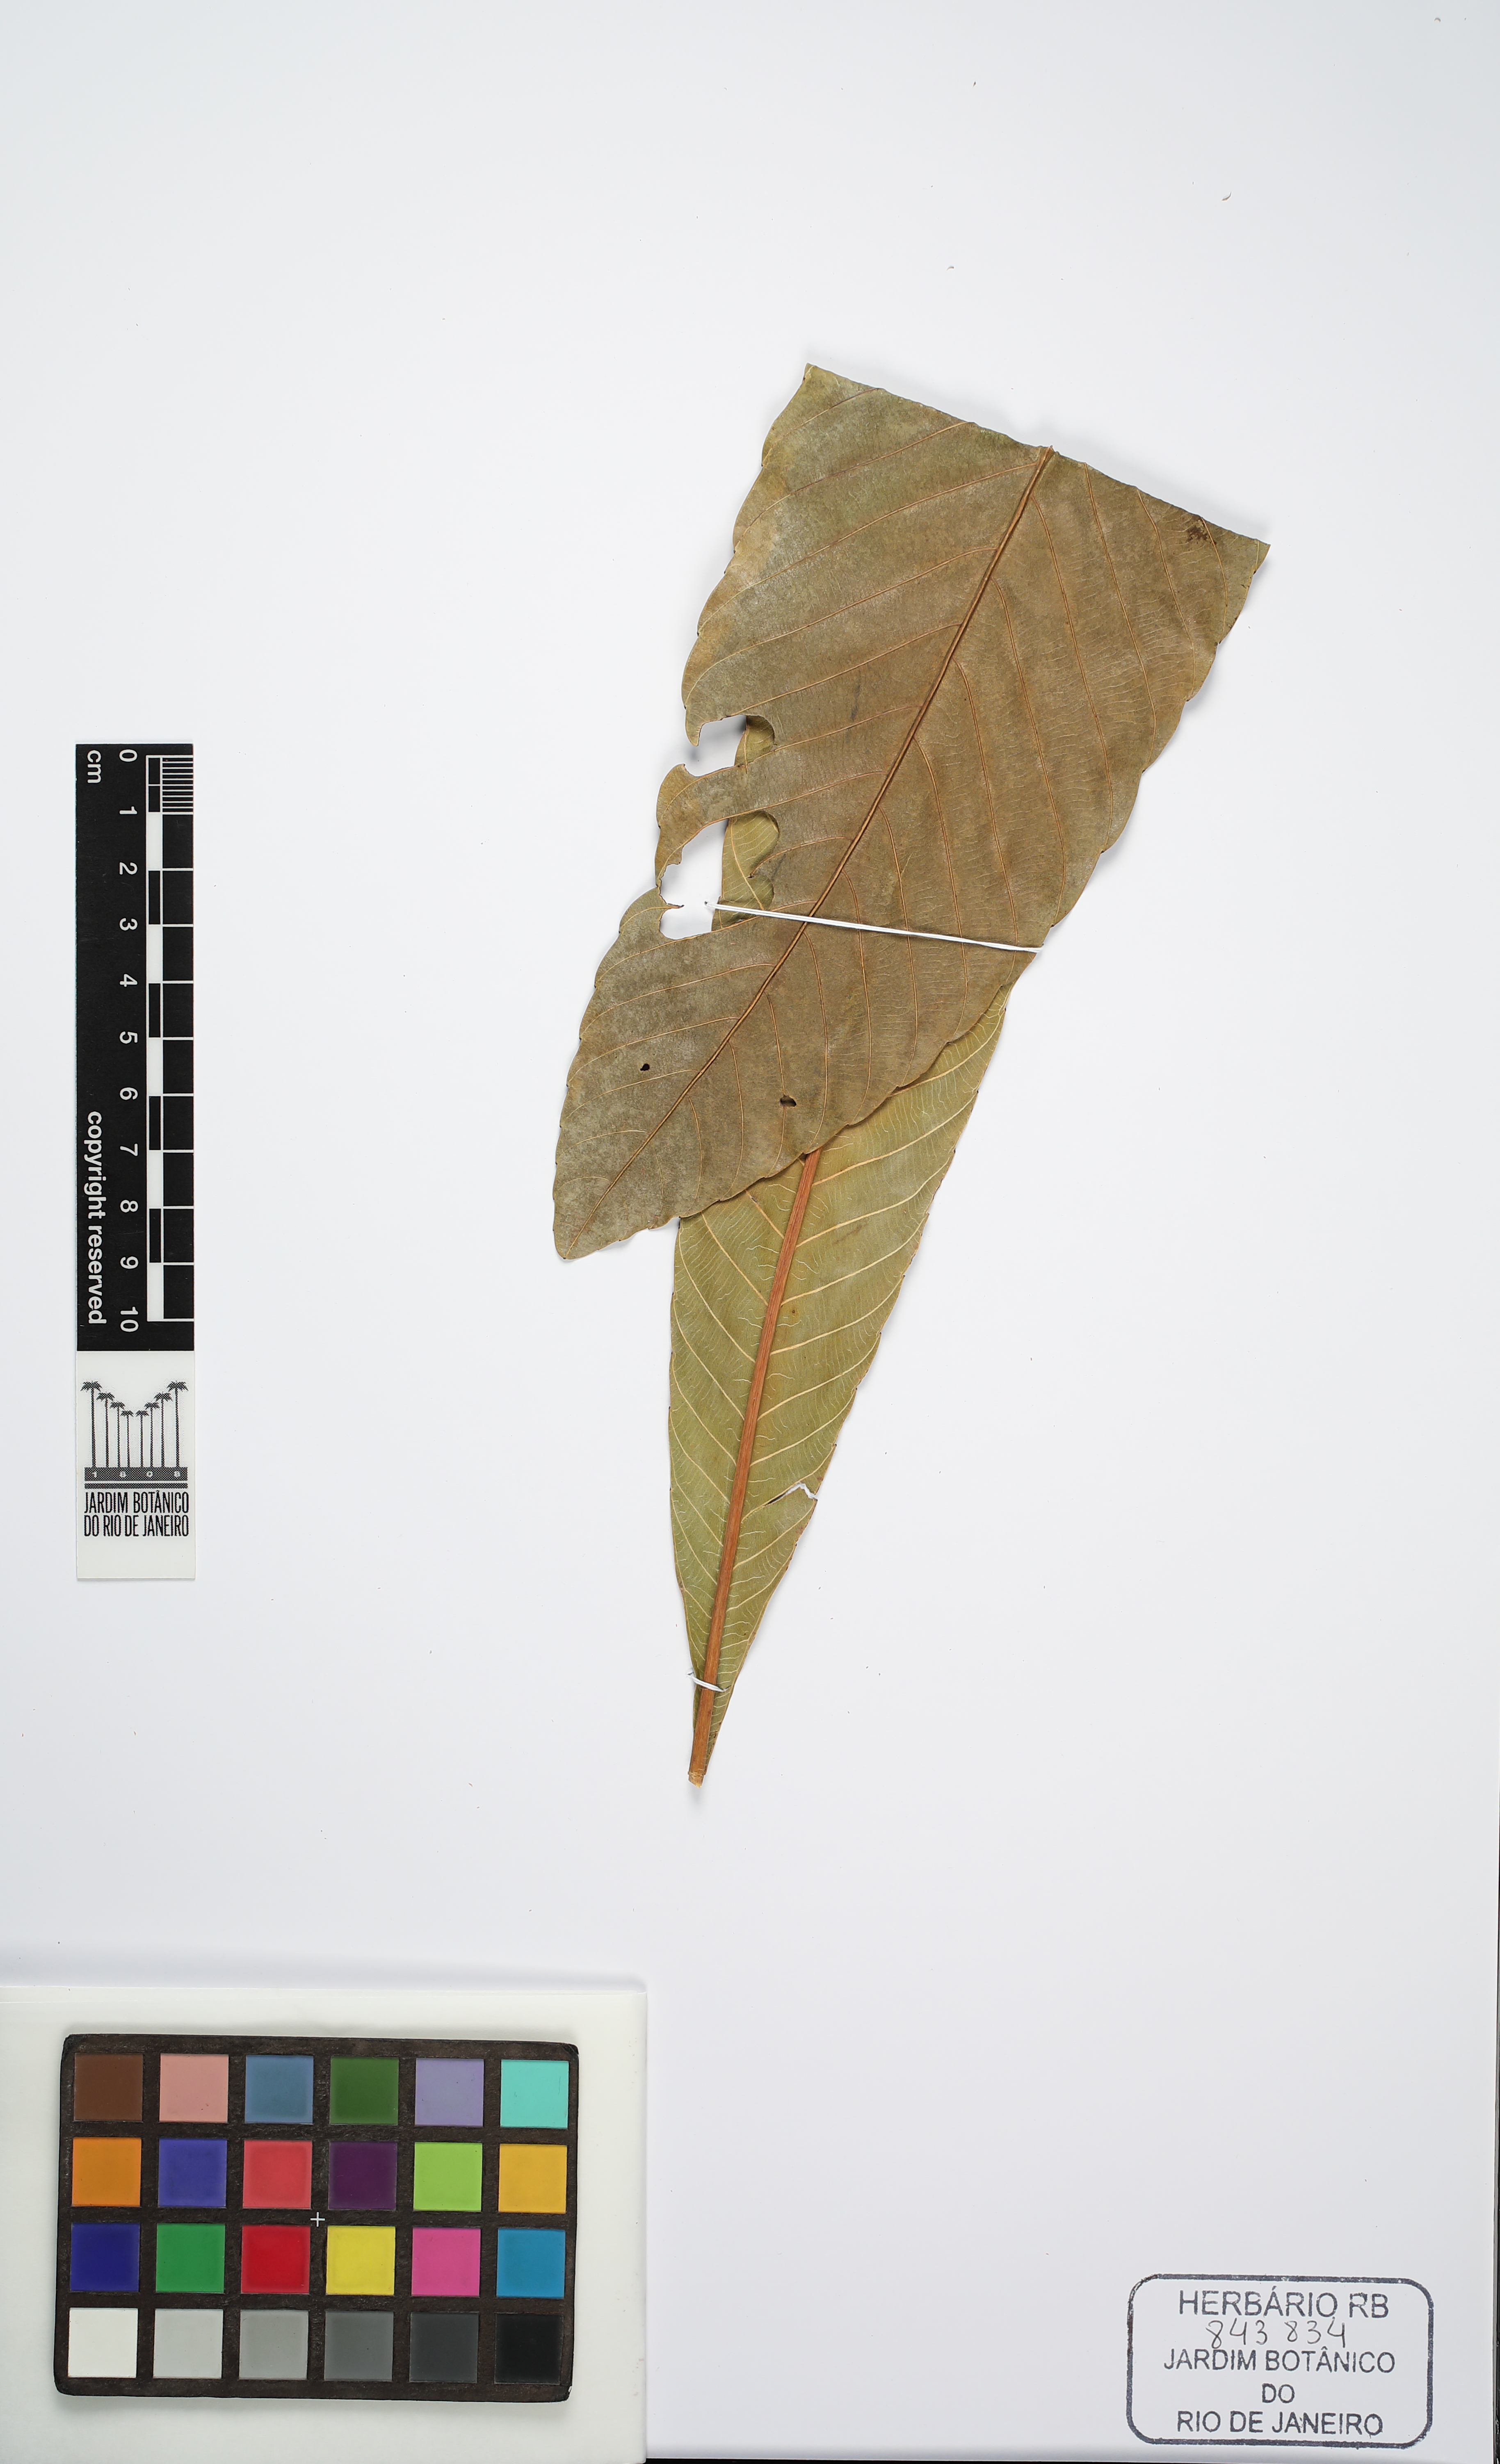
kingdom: Plantae
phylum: Tracheophyta
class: Magnoliopsida
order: Myrtales
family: Vochysiaceae
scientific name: Vochysiaceae
